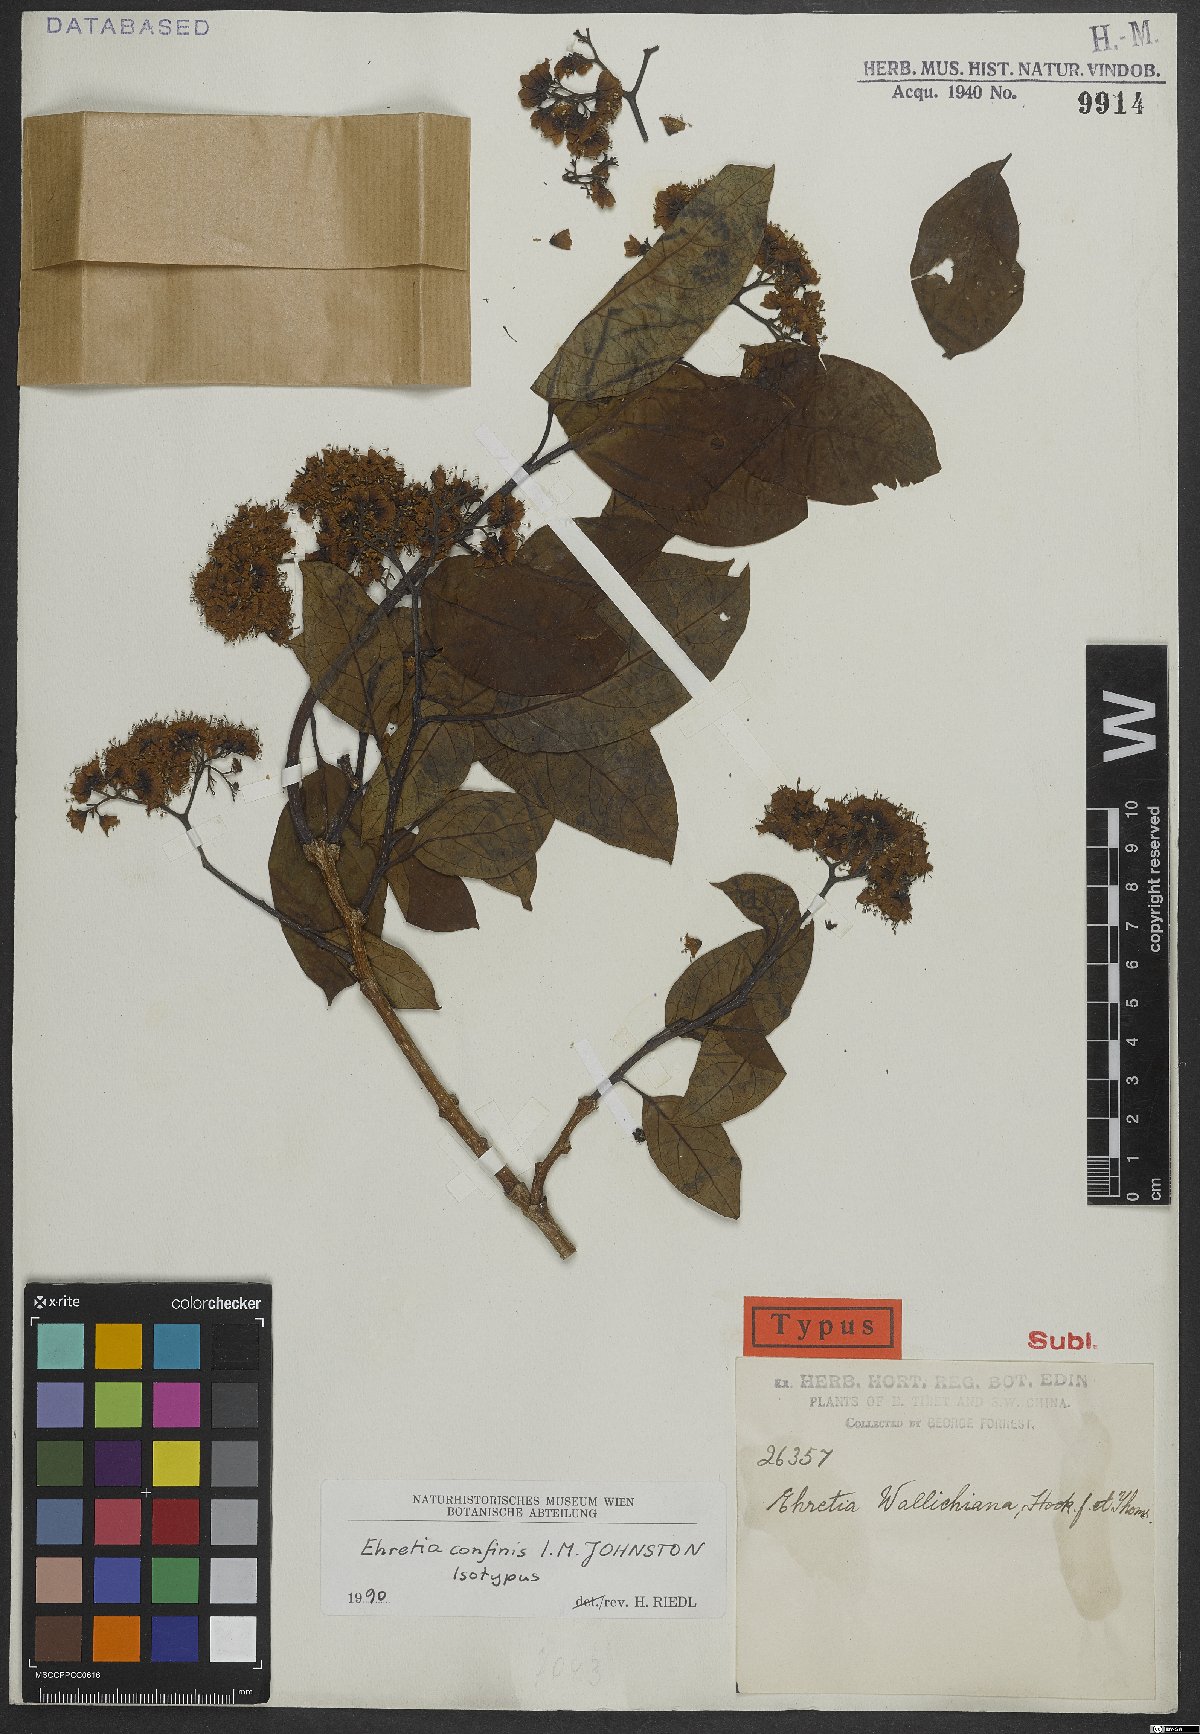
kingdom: Plantae
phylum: Tracheophyta
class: Magnoliopsida
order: Boraginales
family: Ehretiaceae
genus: Ehretia
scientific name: Ehretia confinis
